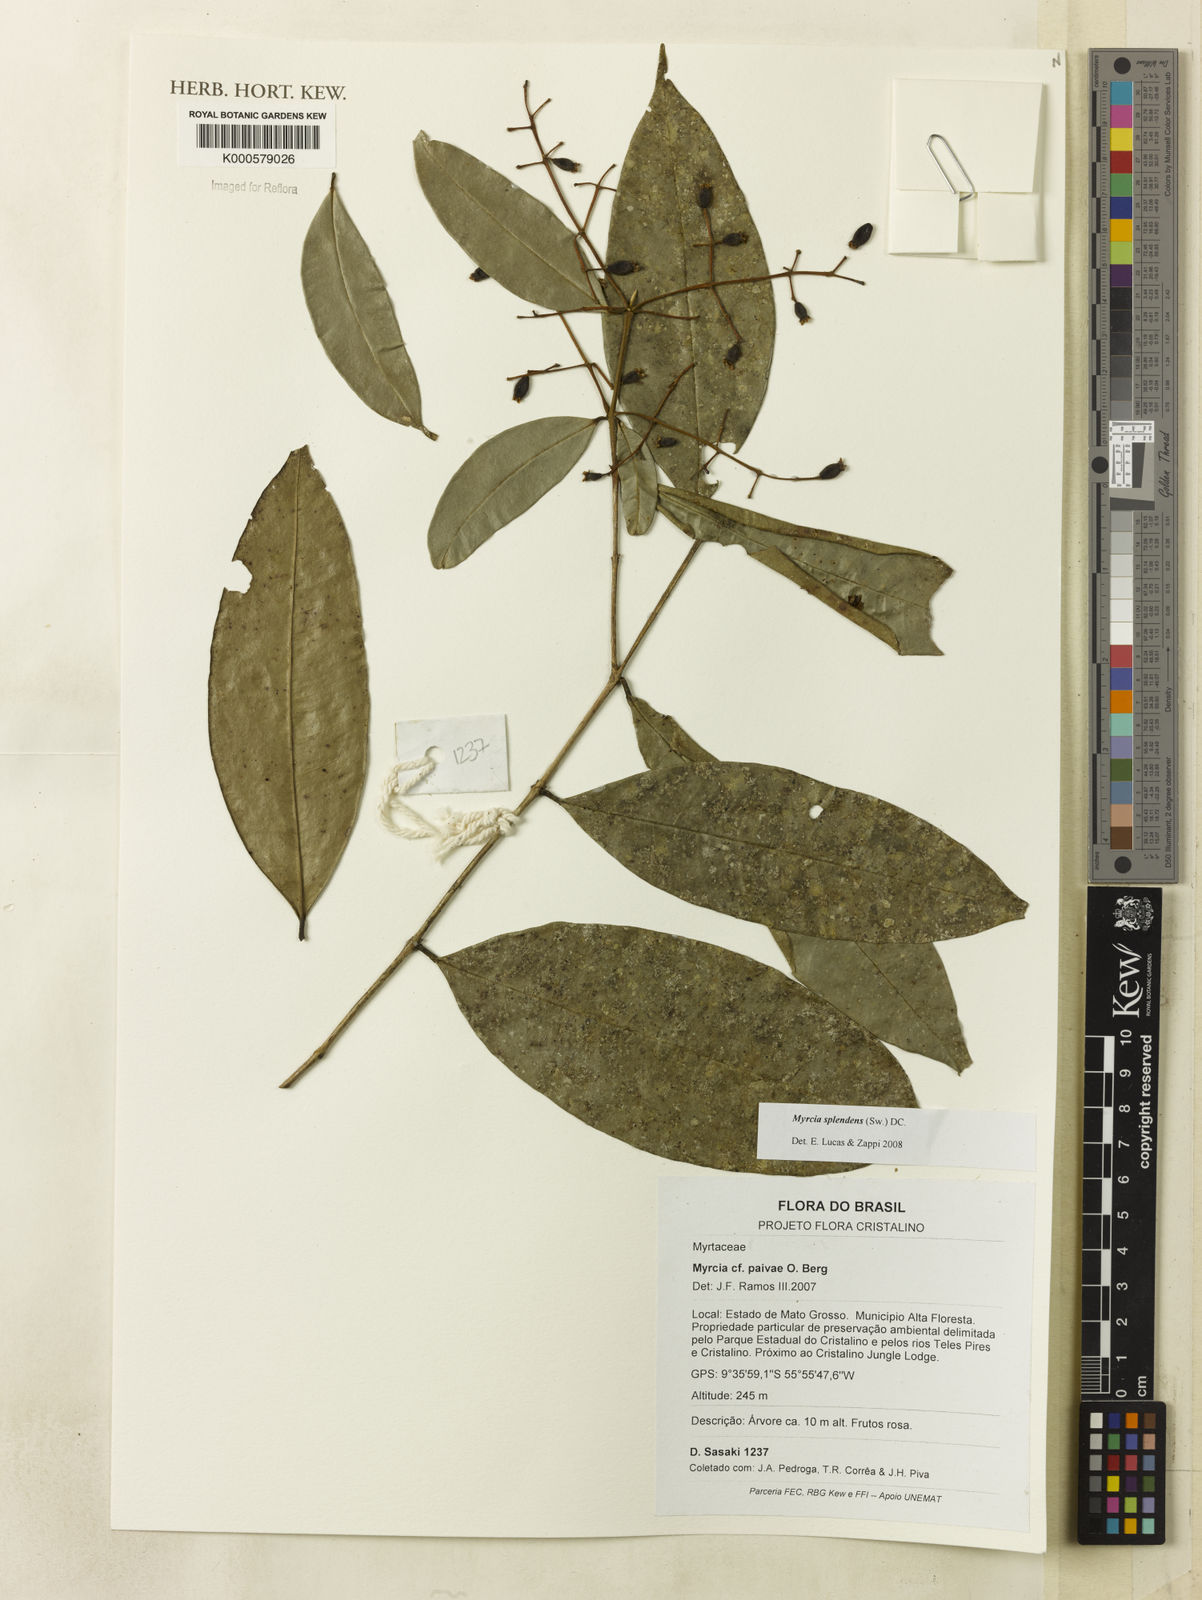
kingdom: Plantae
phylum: Tracheophyta
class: Magnoliopsida
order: Myrtales
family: Myrtaceae
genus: Myrcia
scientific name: Myrcia splendens
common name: Surinam cherry
